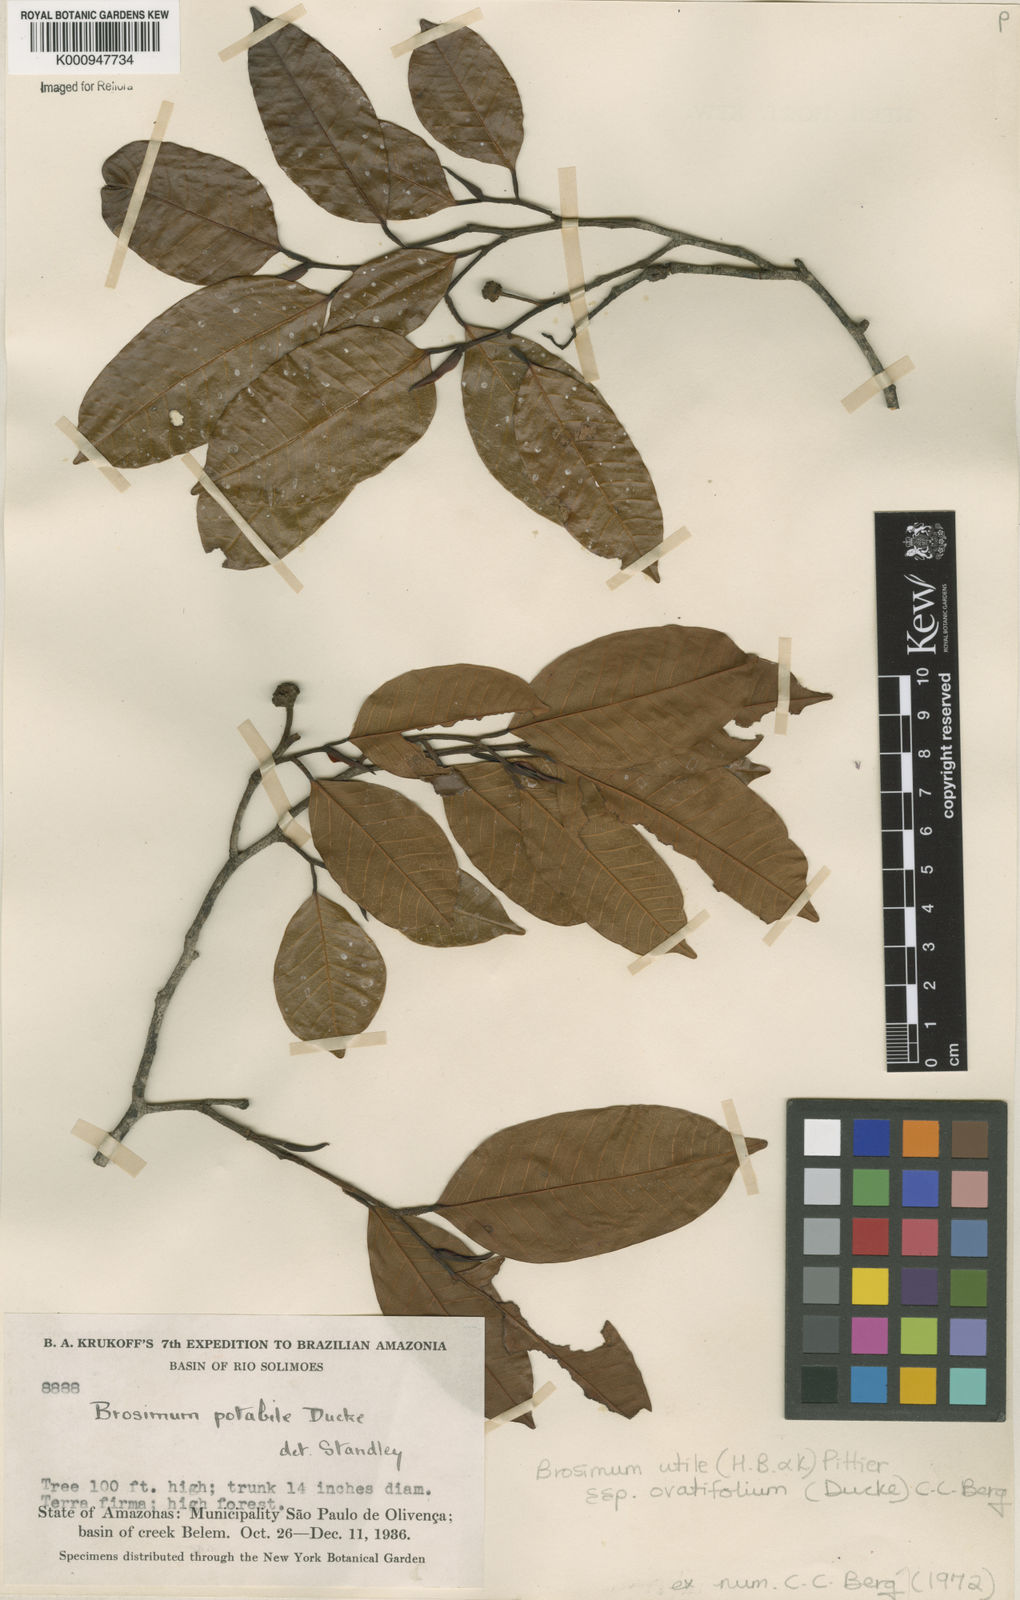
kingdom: Plantae
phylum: Tracheophyta
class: Magnoliopsida
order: Rosales
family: Moraceae
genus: Brosimum
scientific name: Brosimum utile
